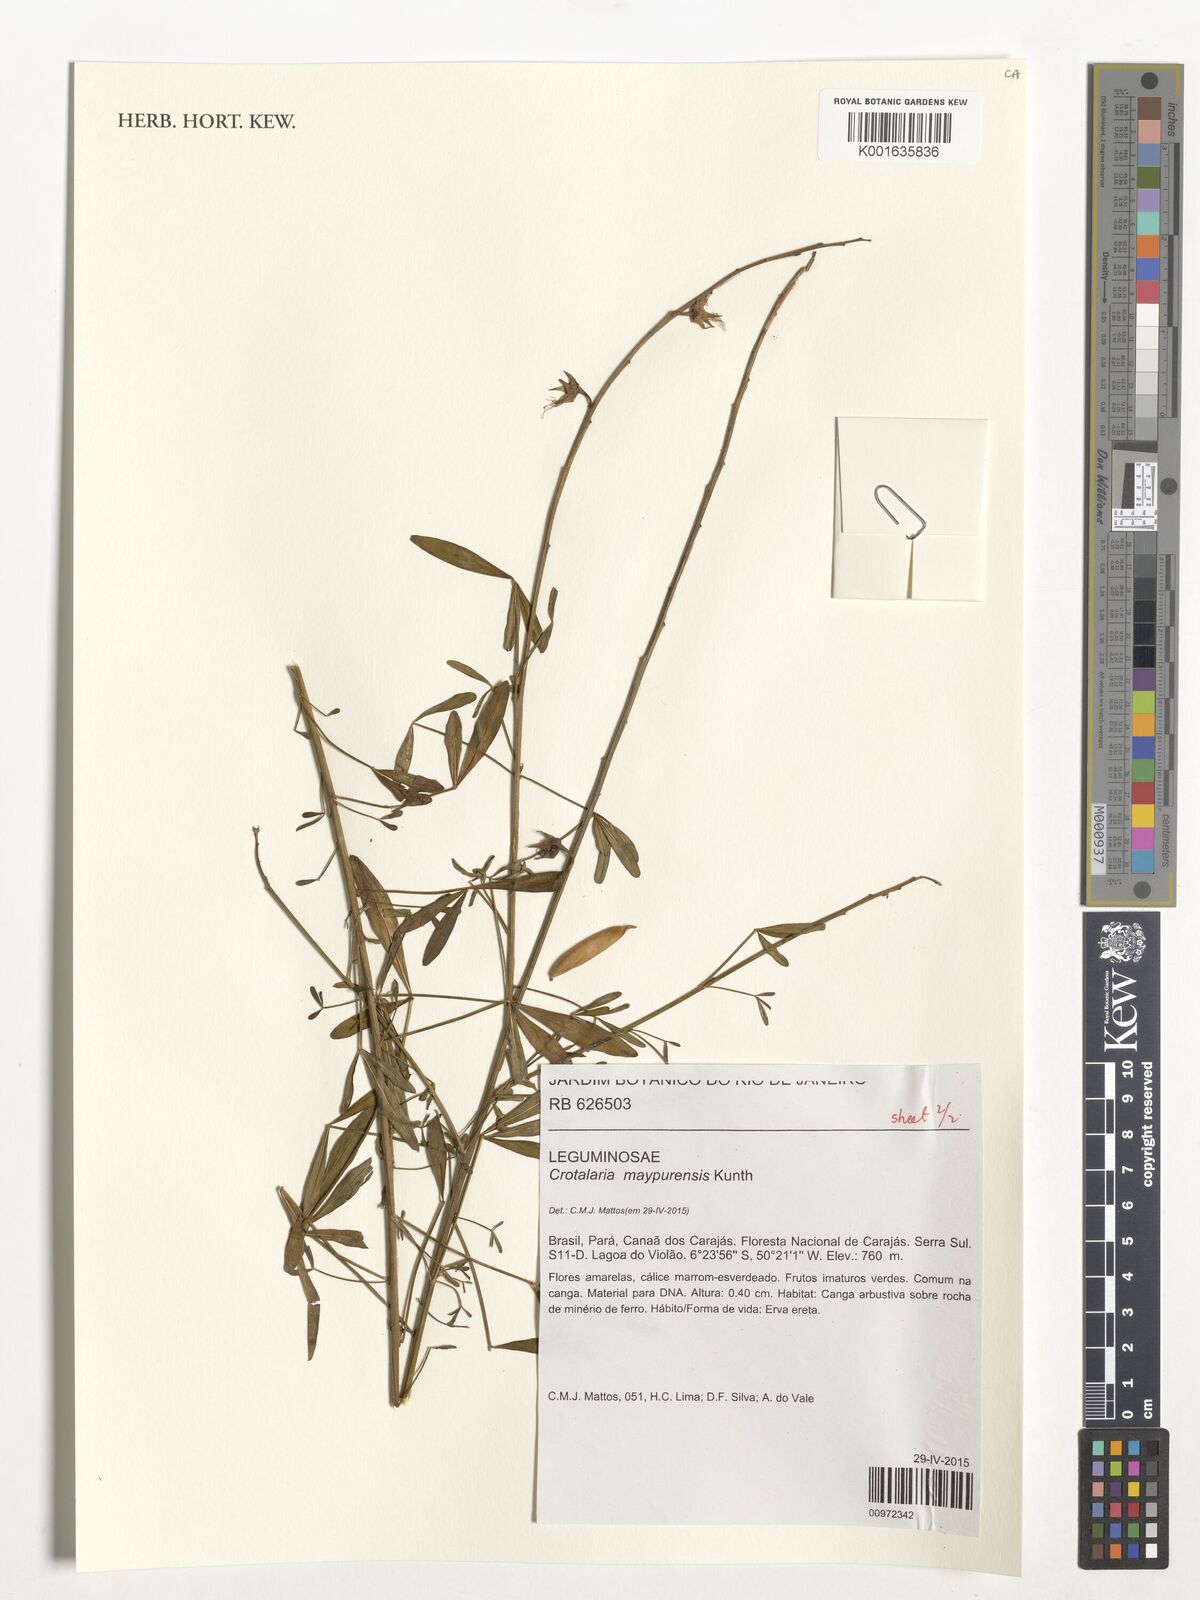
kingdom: Plantae
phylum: Tracheophyta
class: Magnoliopsida
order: Fabales
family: Fabaceae
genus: Crotalaria
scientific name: Crotalaria maypurensis
